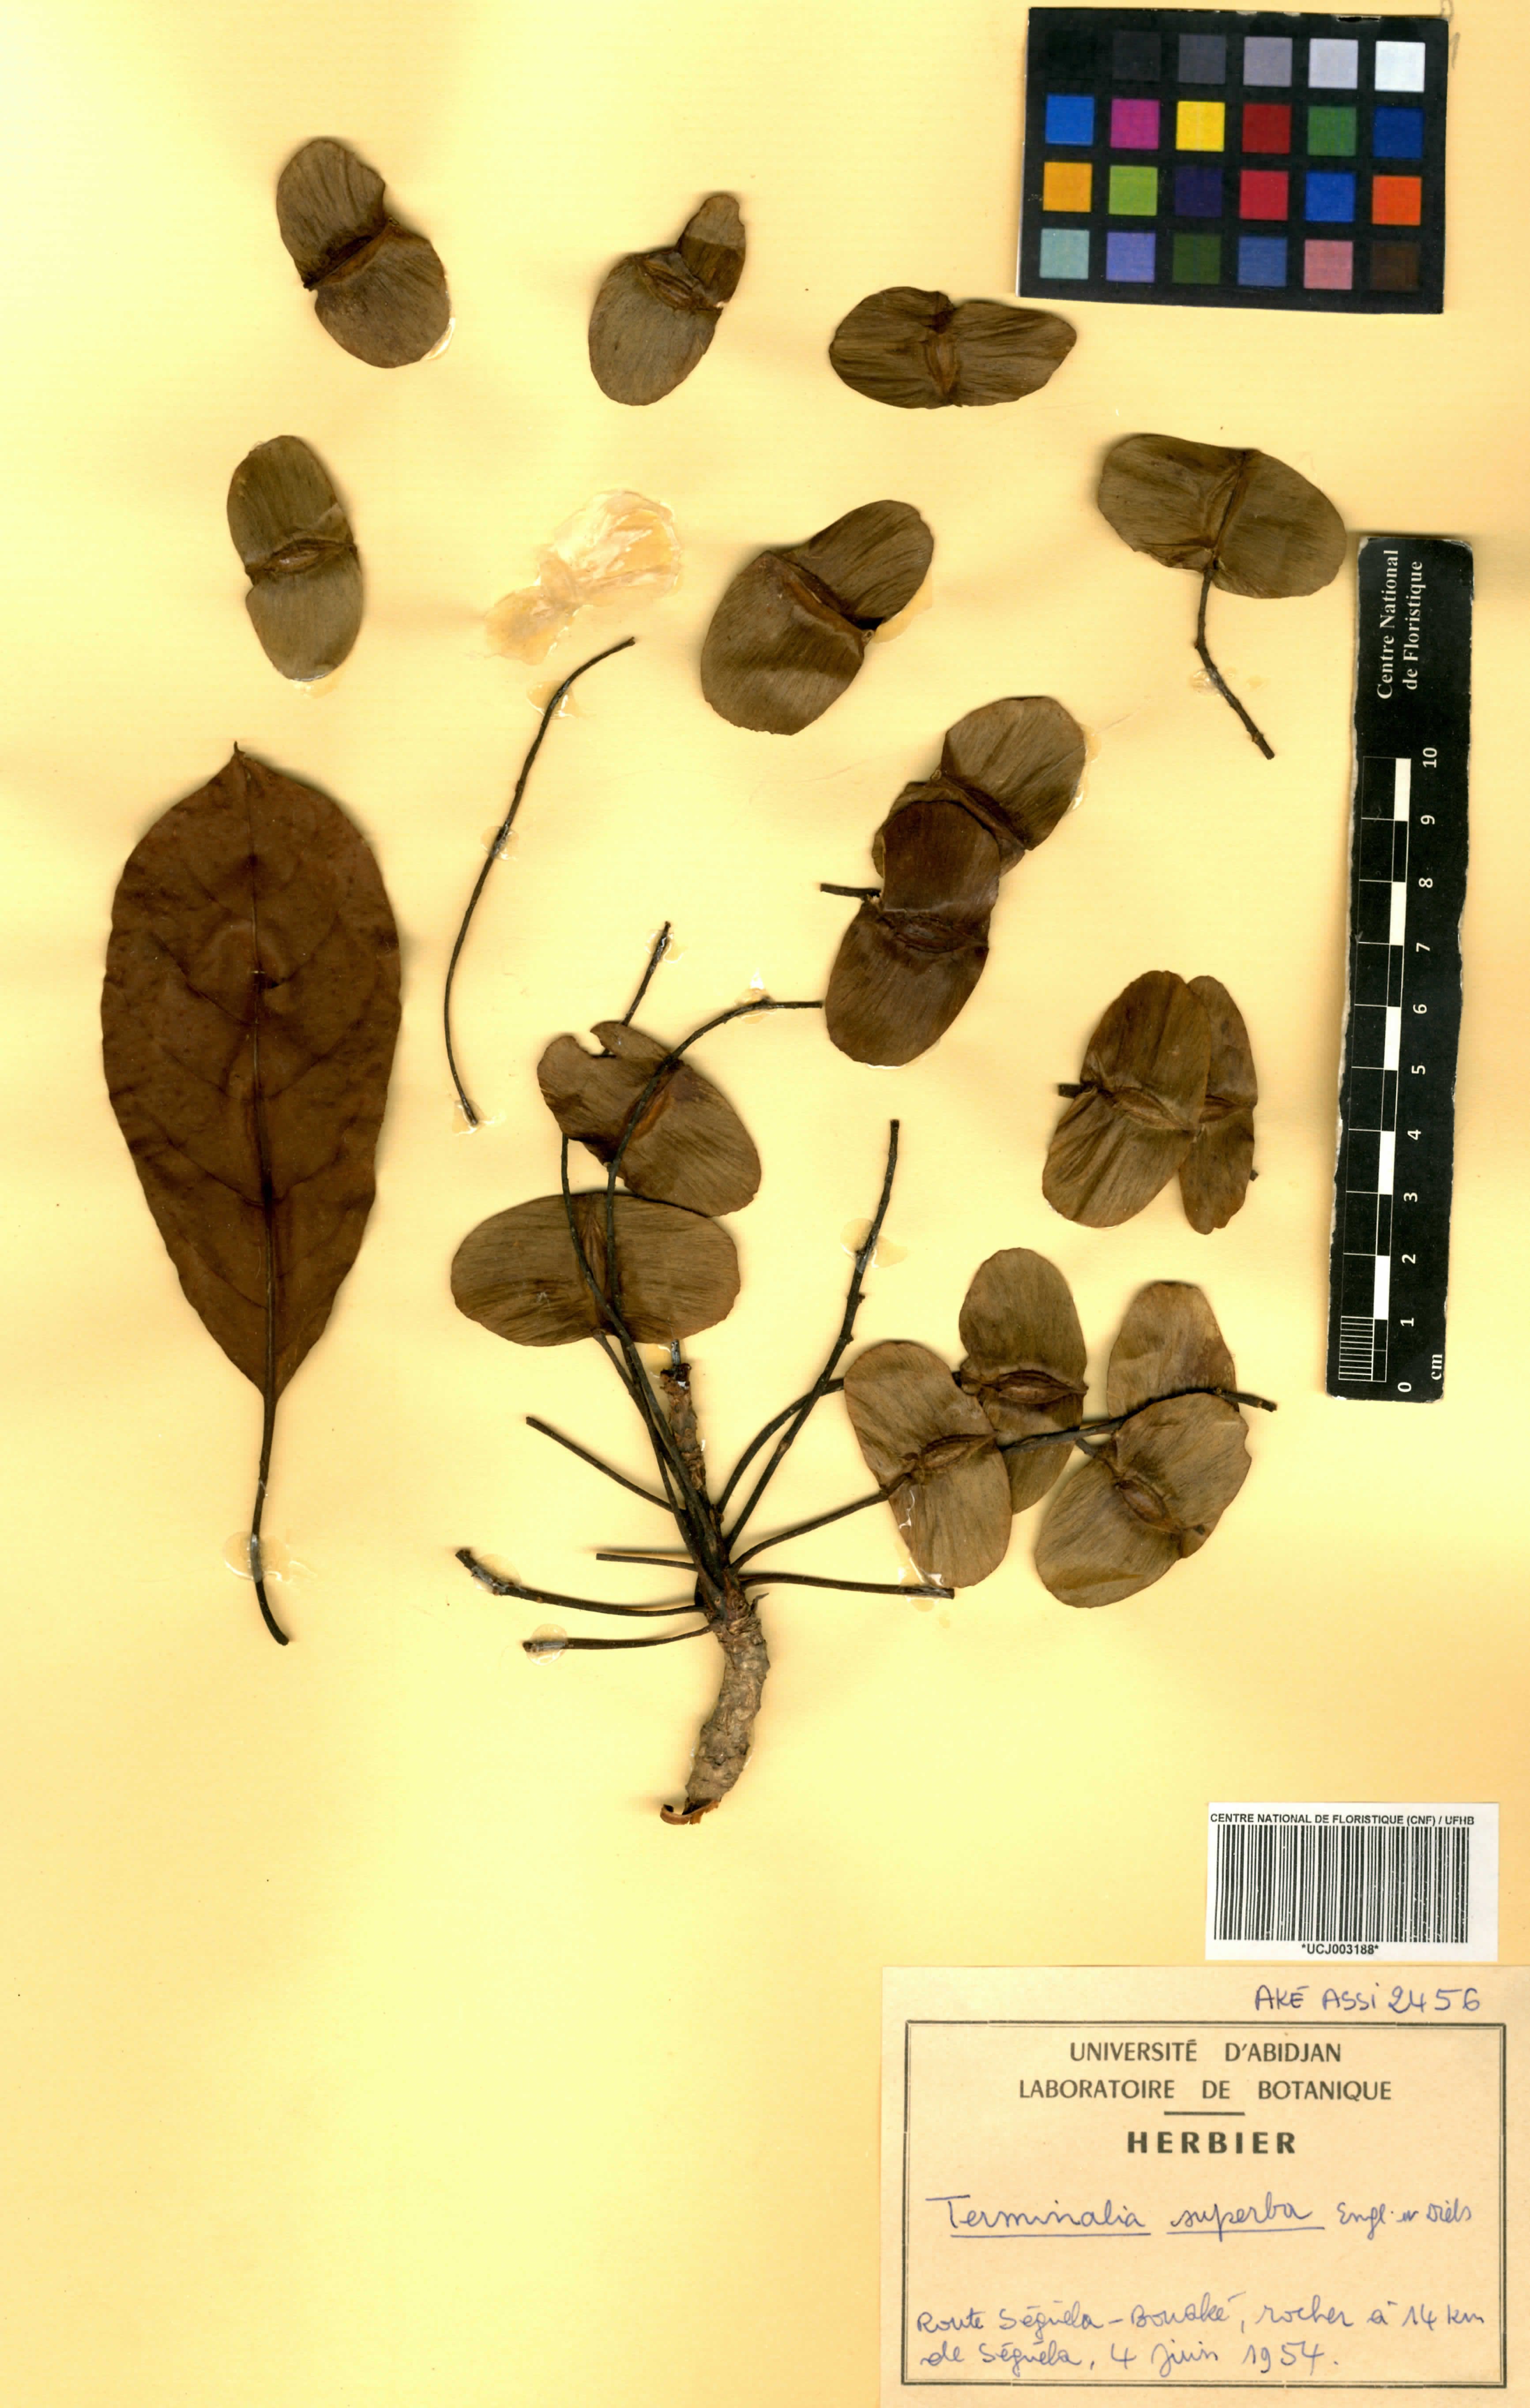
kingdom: Plantae
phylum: Tracheophyta
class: Magnoliopsida
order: Myrtales
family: Combretaceae
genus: Terminalia
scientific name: Terminalia superba
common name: White afara
